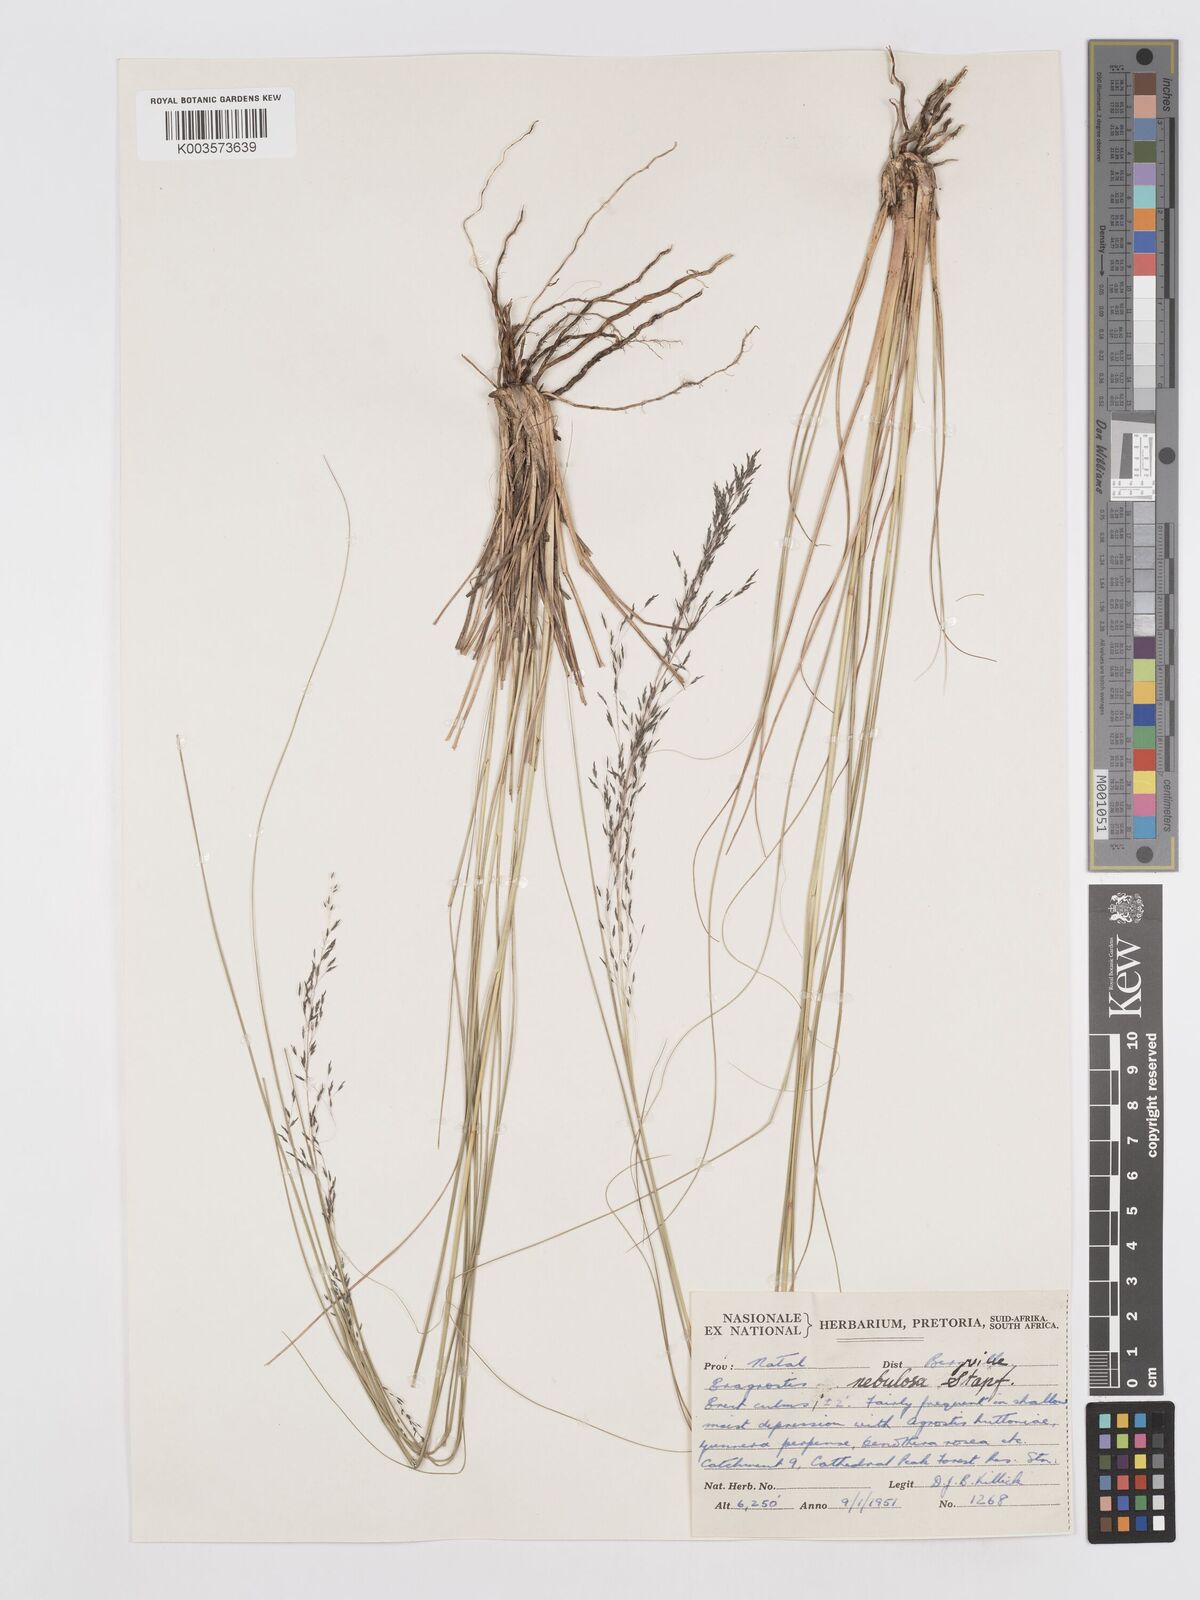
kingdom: Plantae
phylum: Tracheophyta
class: Liliopsida
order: Poales
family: Poaceae
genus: Eragrostis
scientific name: Eragrostis planiculmis
